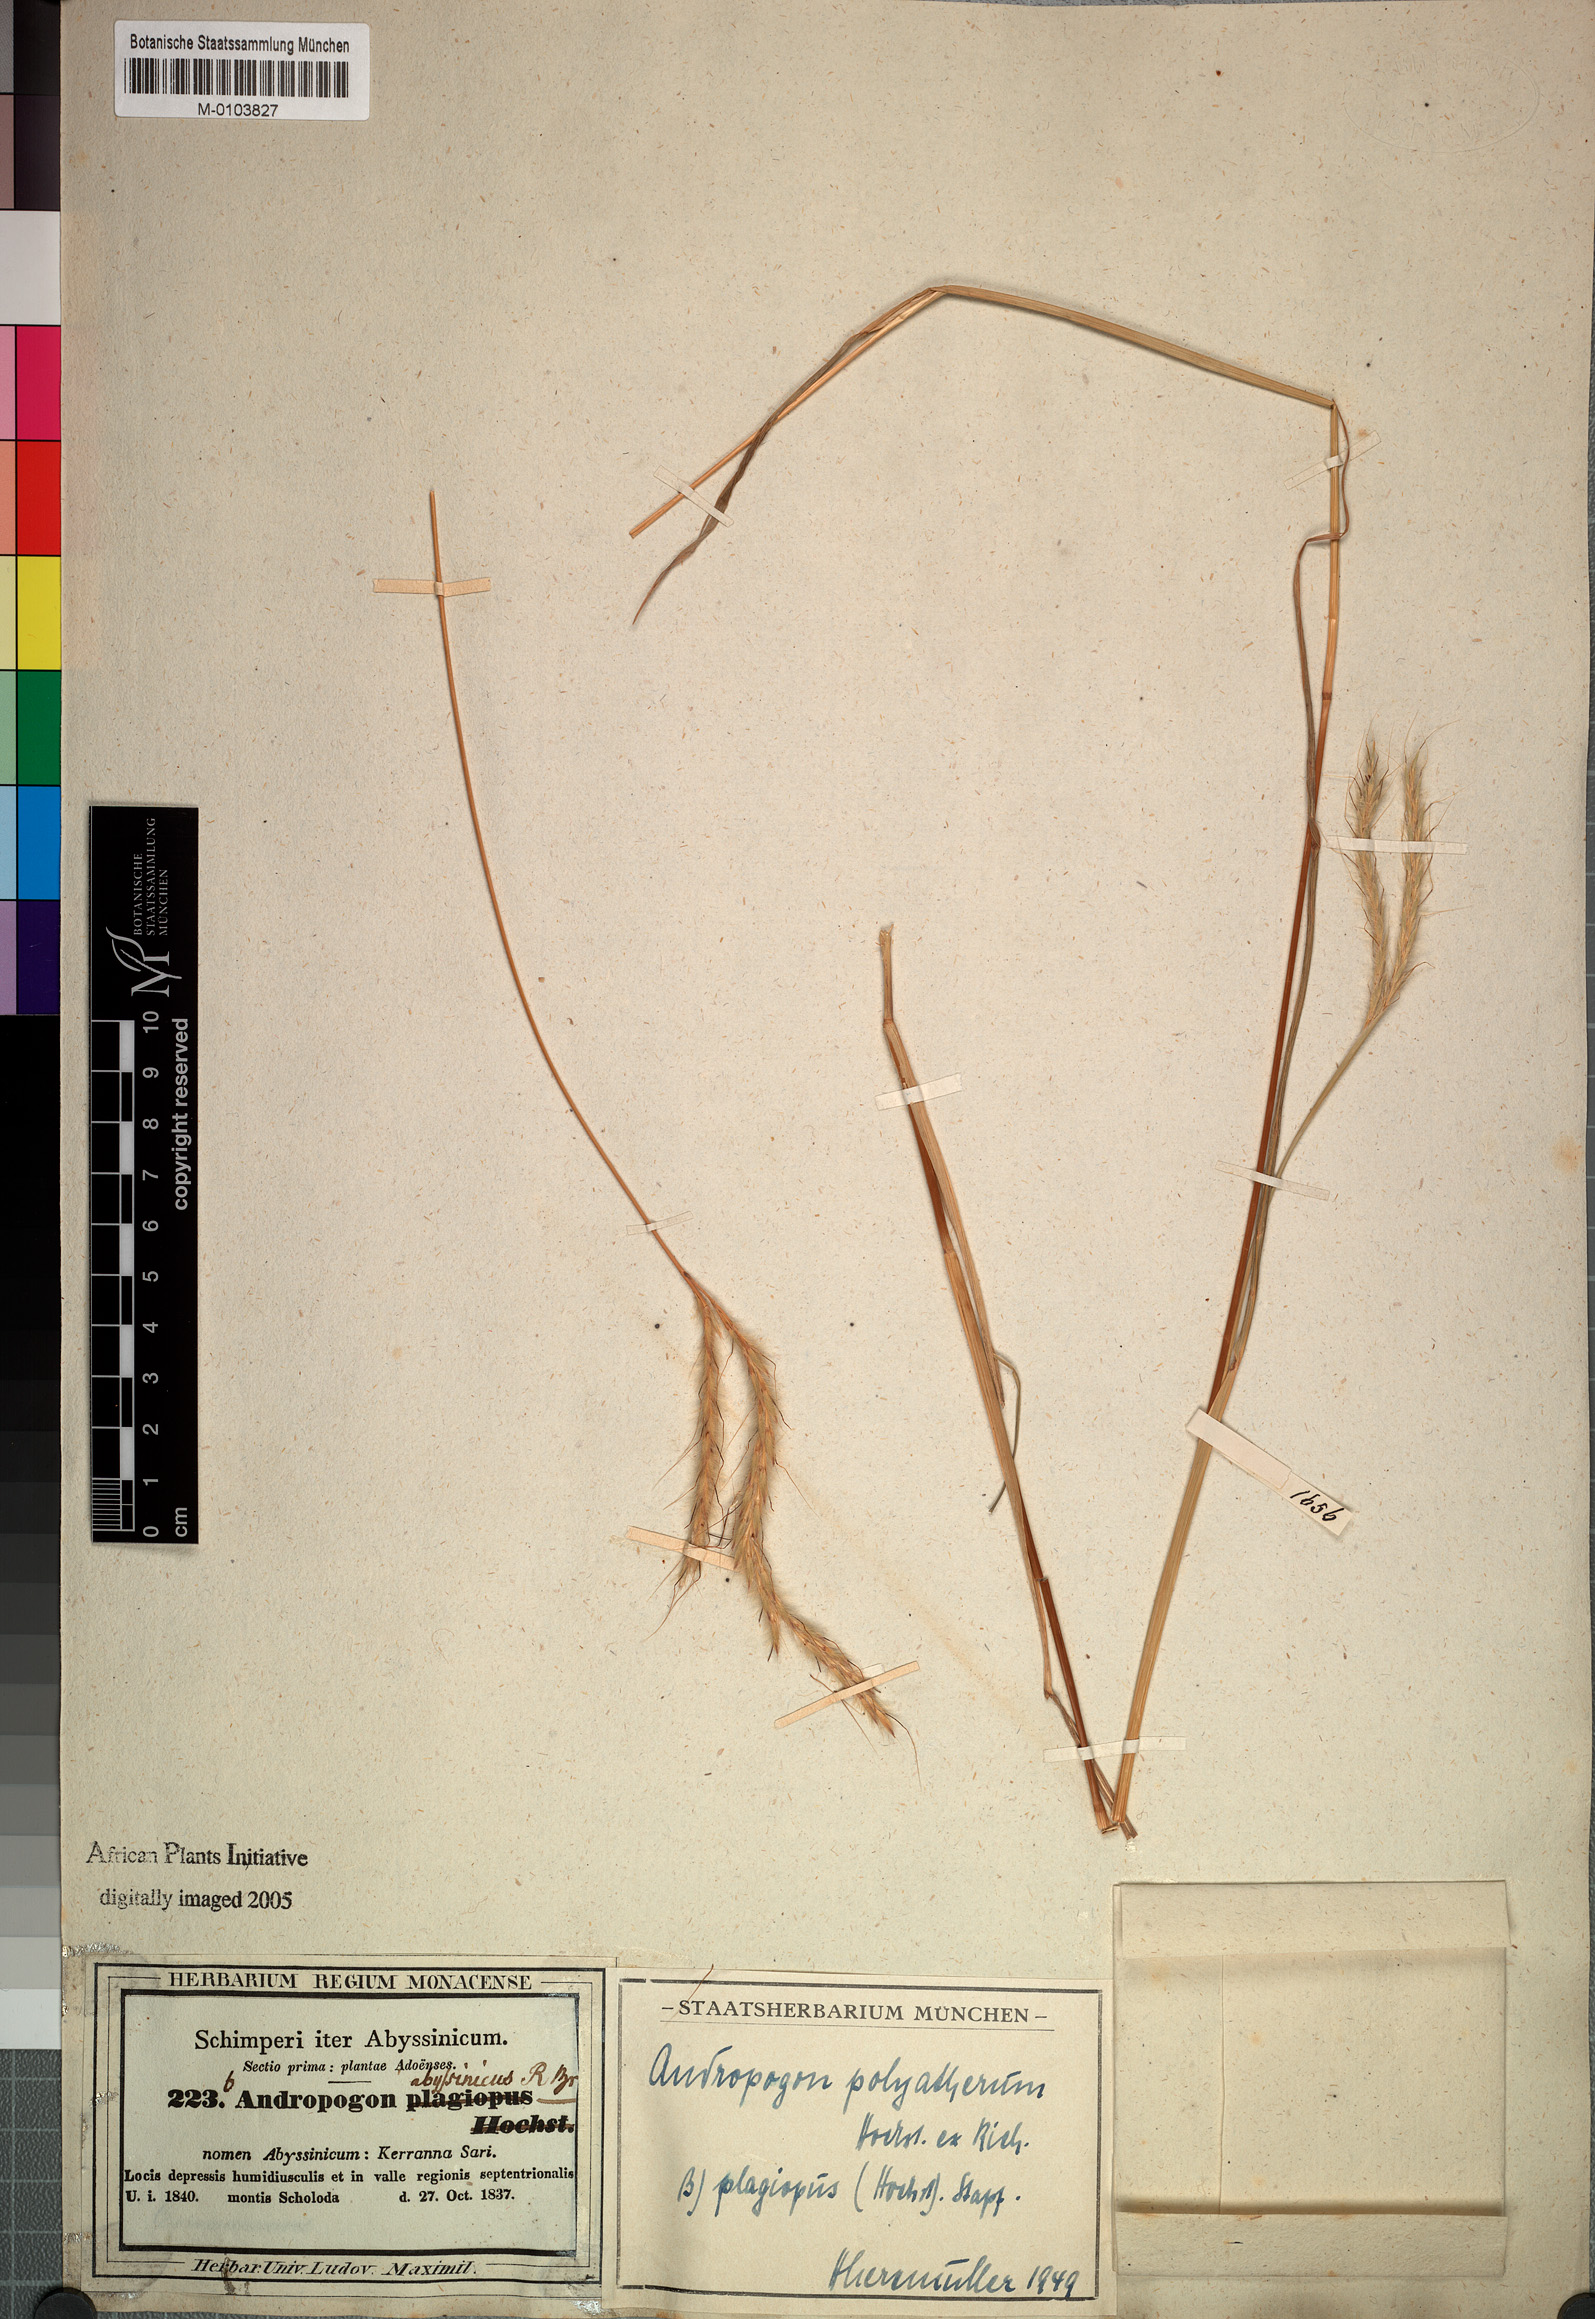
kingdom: Plantae
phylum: Tracheophyta
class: Liliopsida
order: Poales
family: Poaceae
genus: Andropogon
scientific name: Andropogon abyssinicus
